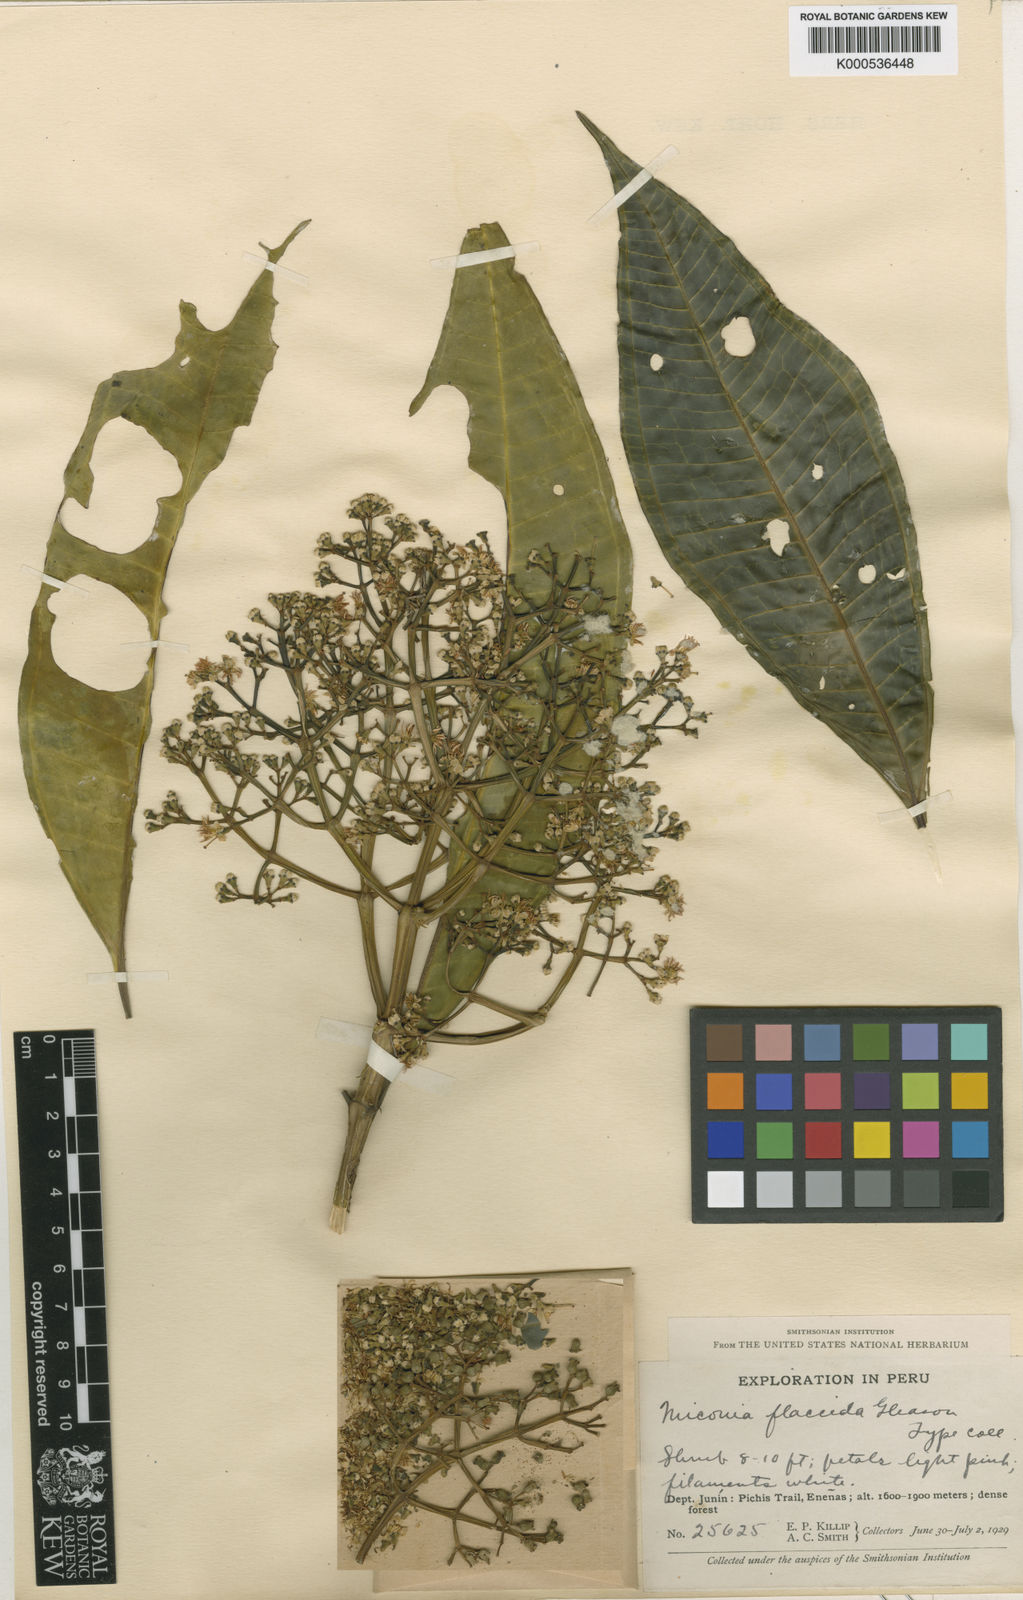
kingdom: Plantae
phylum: Tracheophyta
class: Magnoliopsida
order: Myrtales
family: Melastomataceae
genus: Miconia
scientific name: Miconia flaccida
